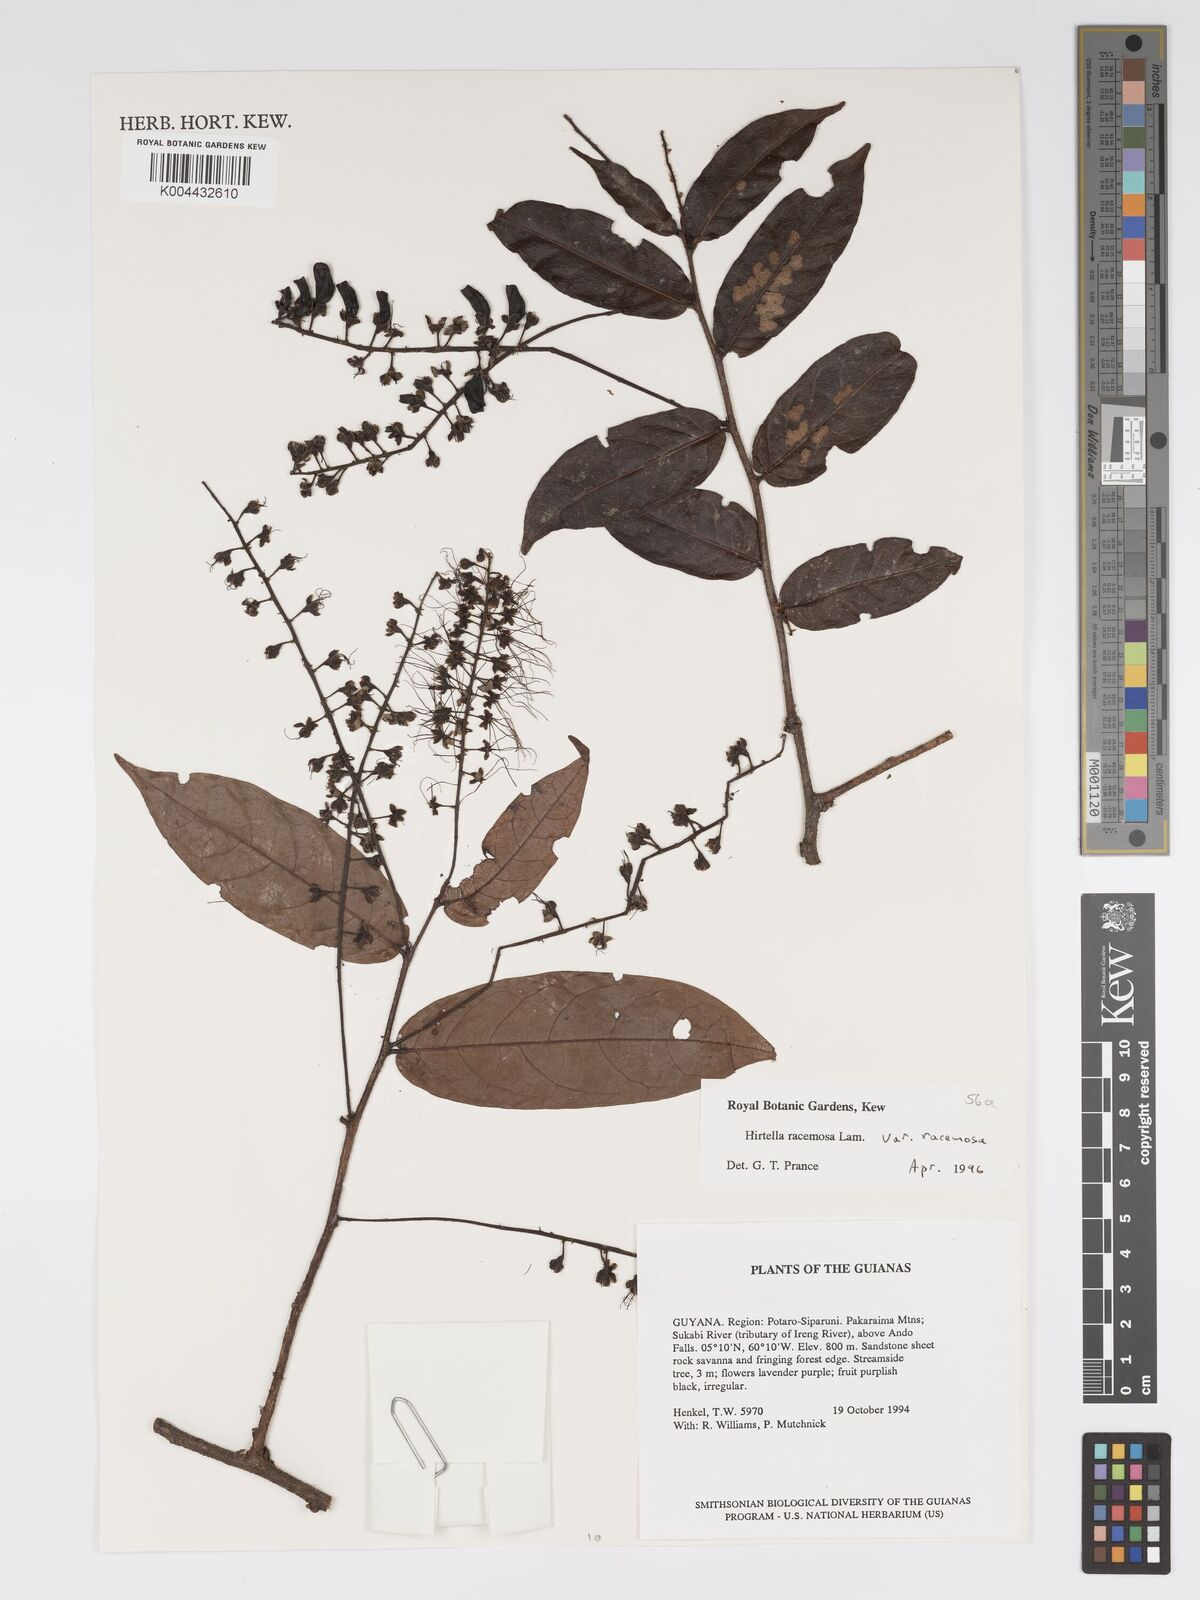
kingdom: Plantae
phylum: Tracheophyta
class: Magnoliopsida
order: Malpighiales
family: Chrysobalanaceae
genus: Hirtella
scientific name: Hirtella racemosa
